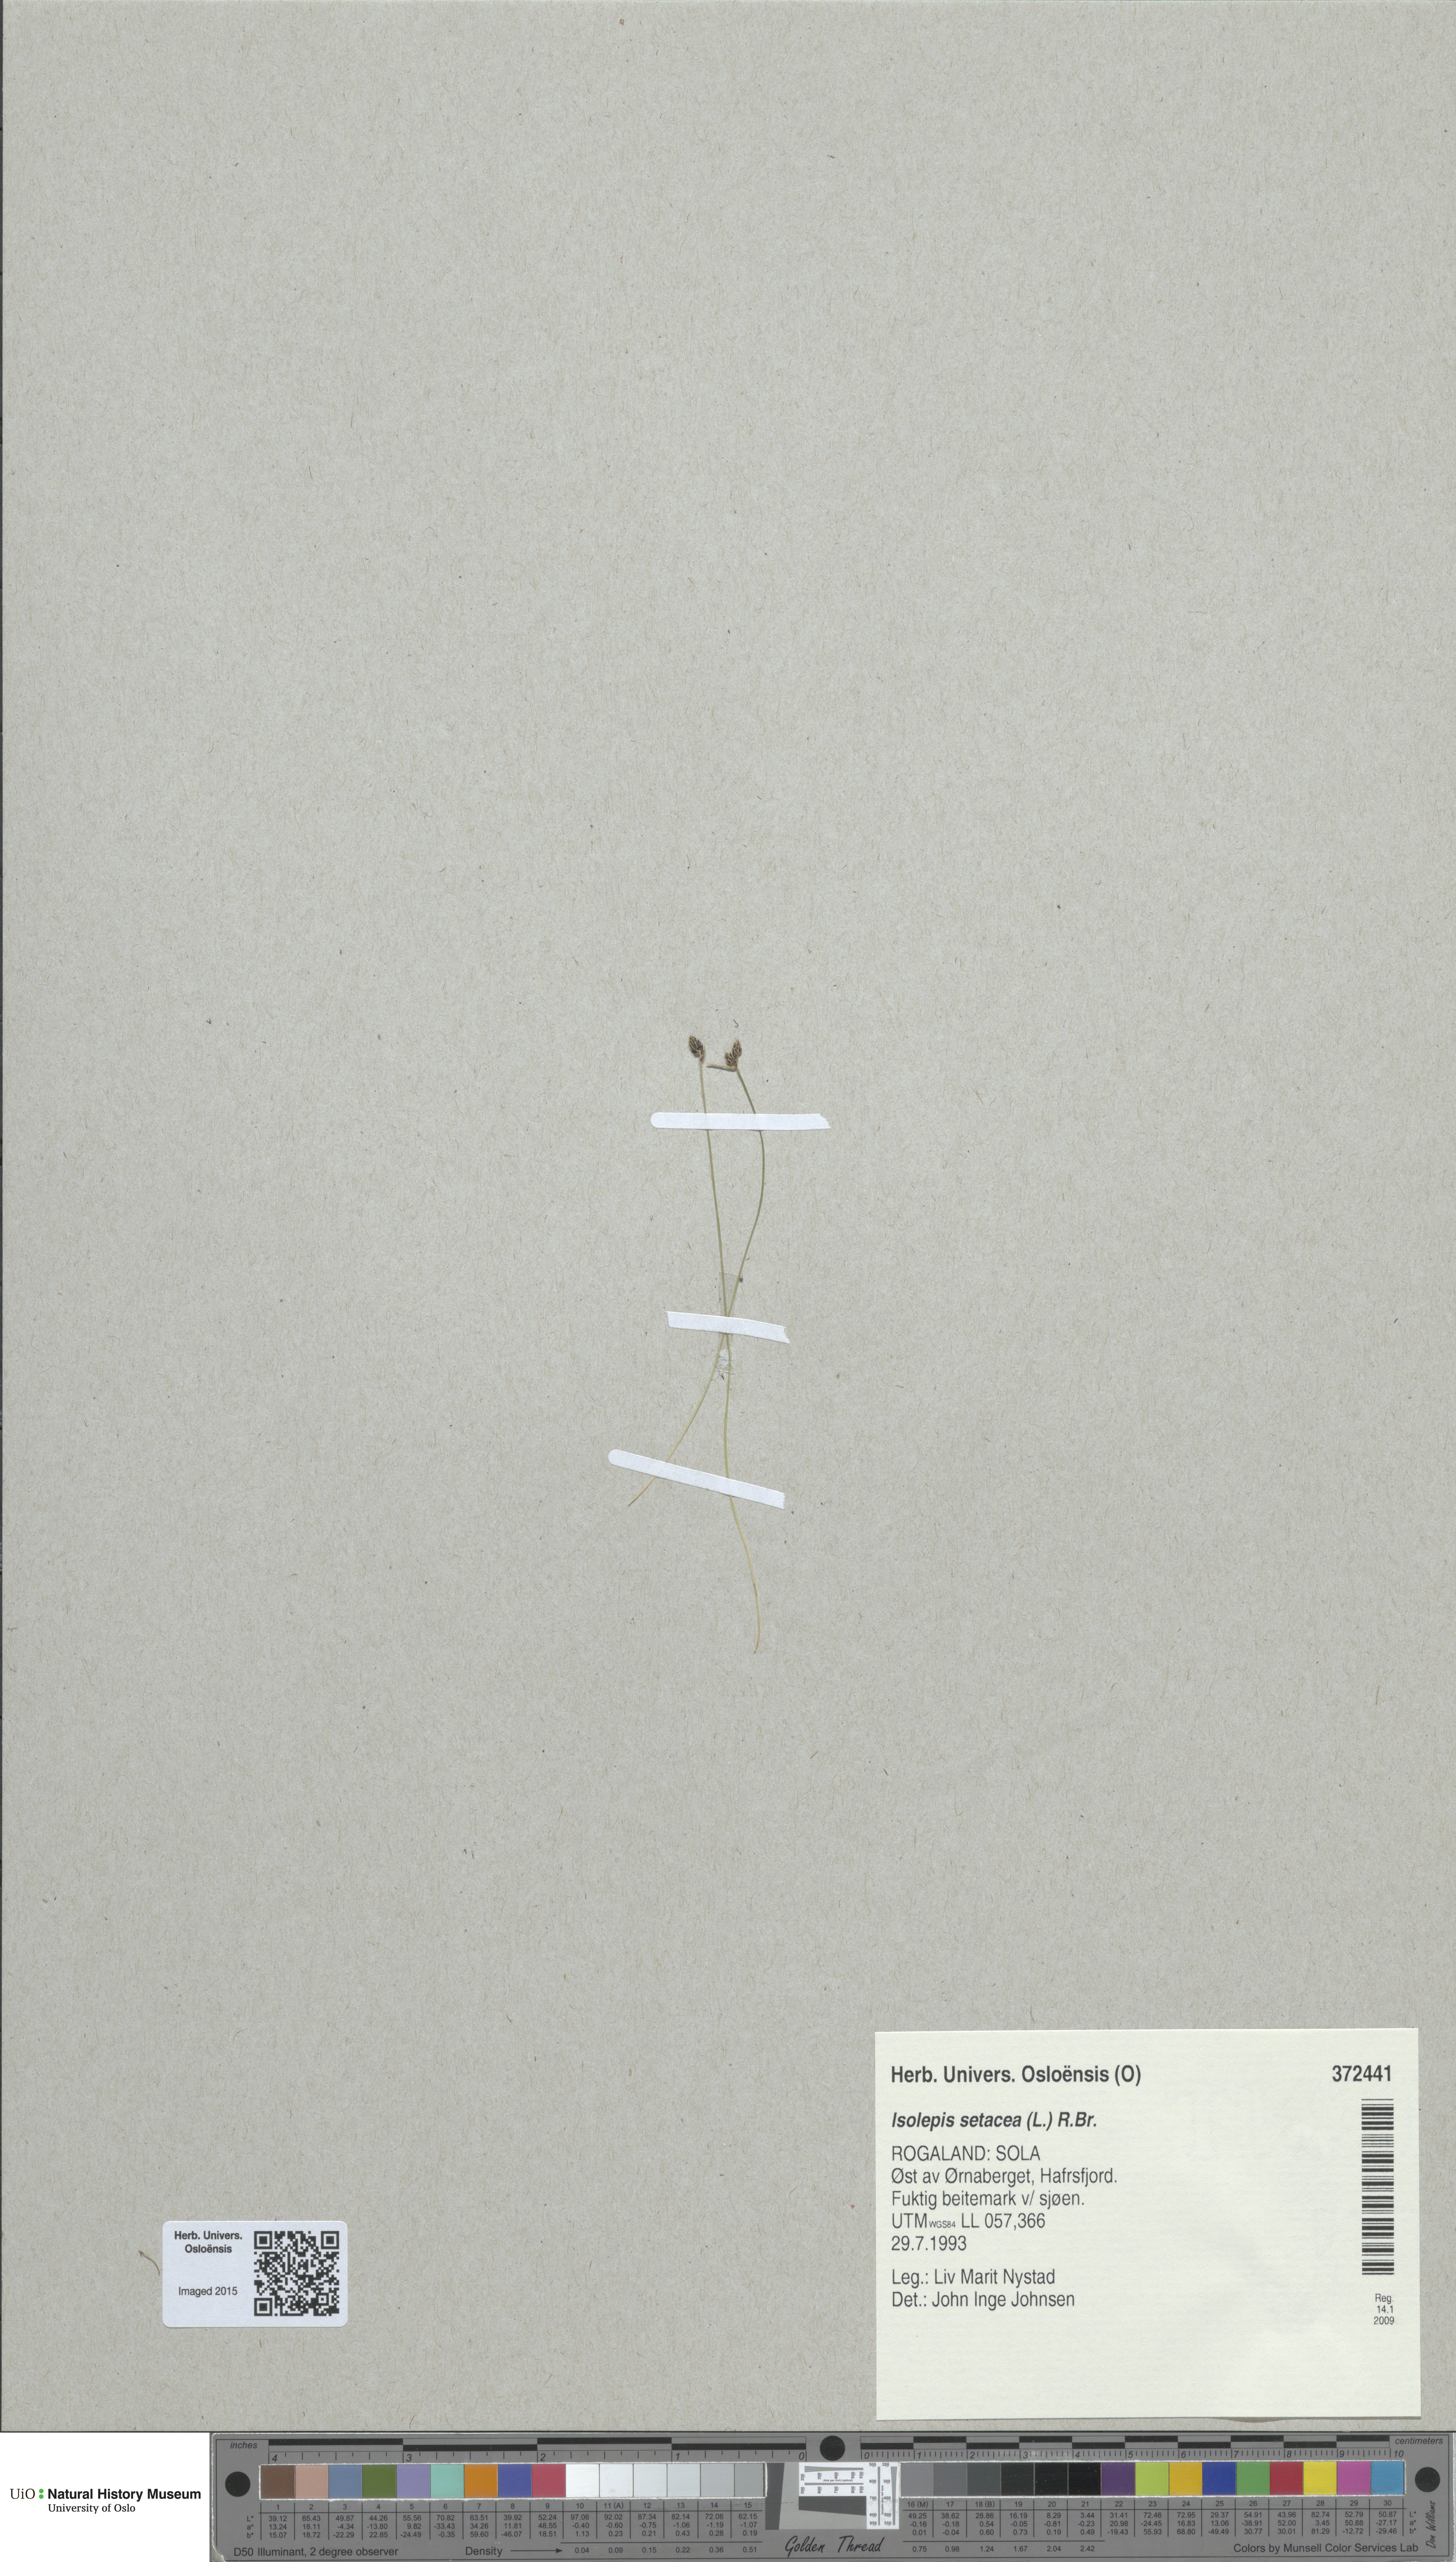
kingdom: Plantae
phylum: Tracheophyta
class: Liliopsida
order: Poales
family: Cyperaceae
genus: Isolepis
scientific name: Isolepis setacea
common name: Bristle club-rush
